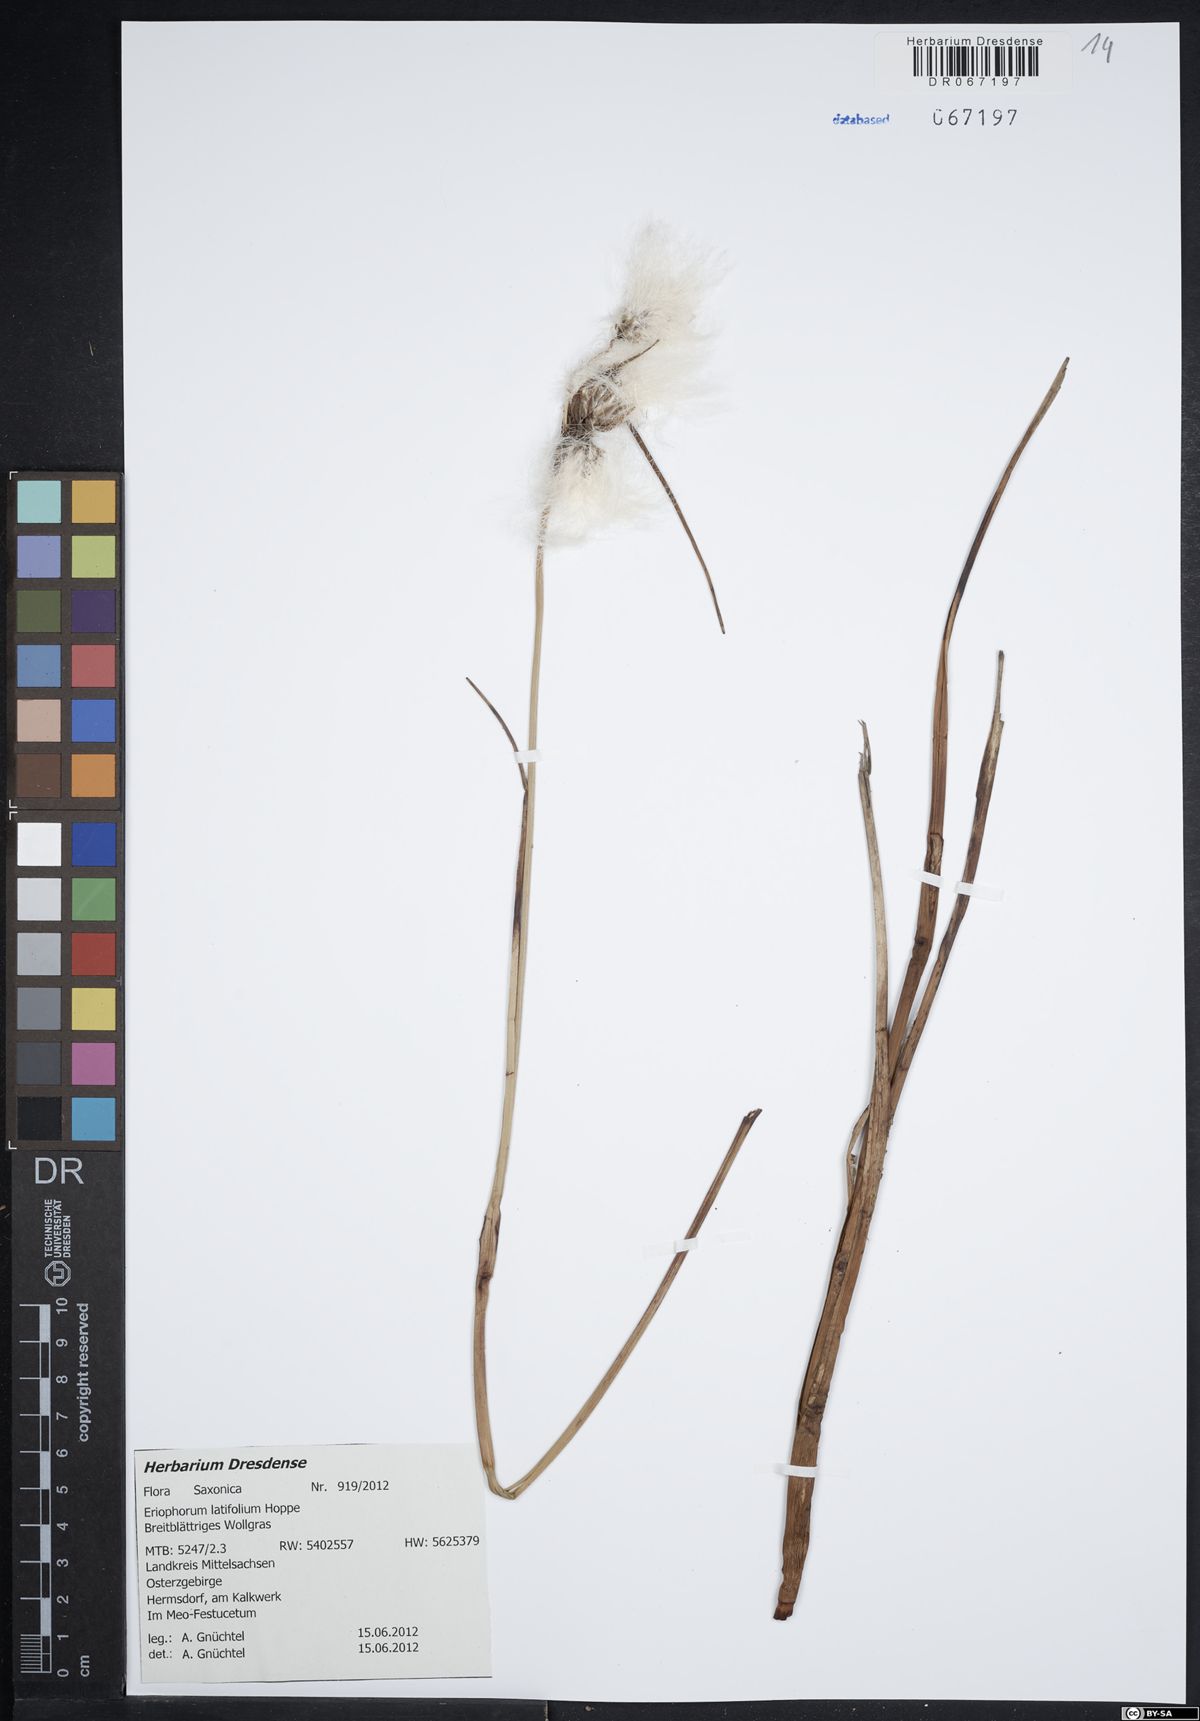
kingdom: Plantae
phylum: Tracheophyta
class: Liliopsida
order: Poales
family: Cyperaceae
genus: Eriophorum
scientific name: Eriophorum latifolium
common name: Broad-leaved cottongrass
